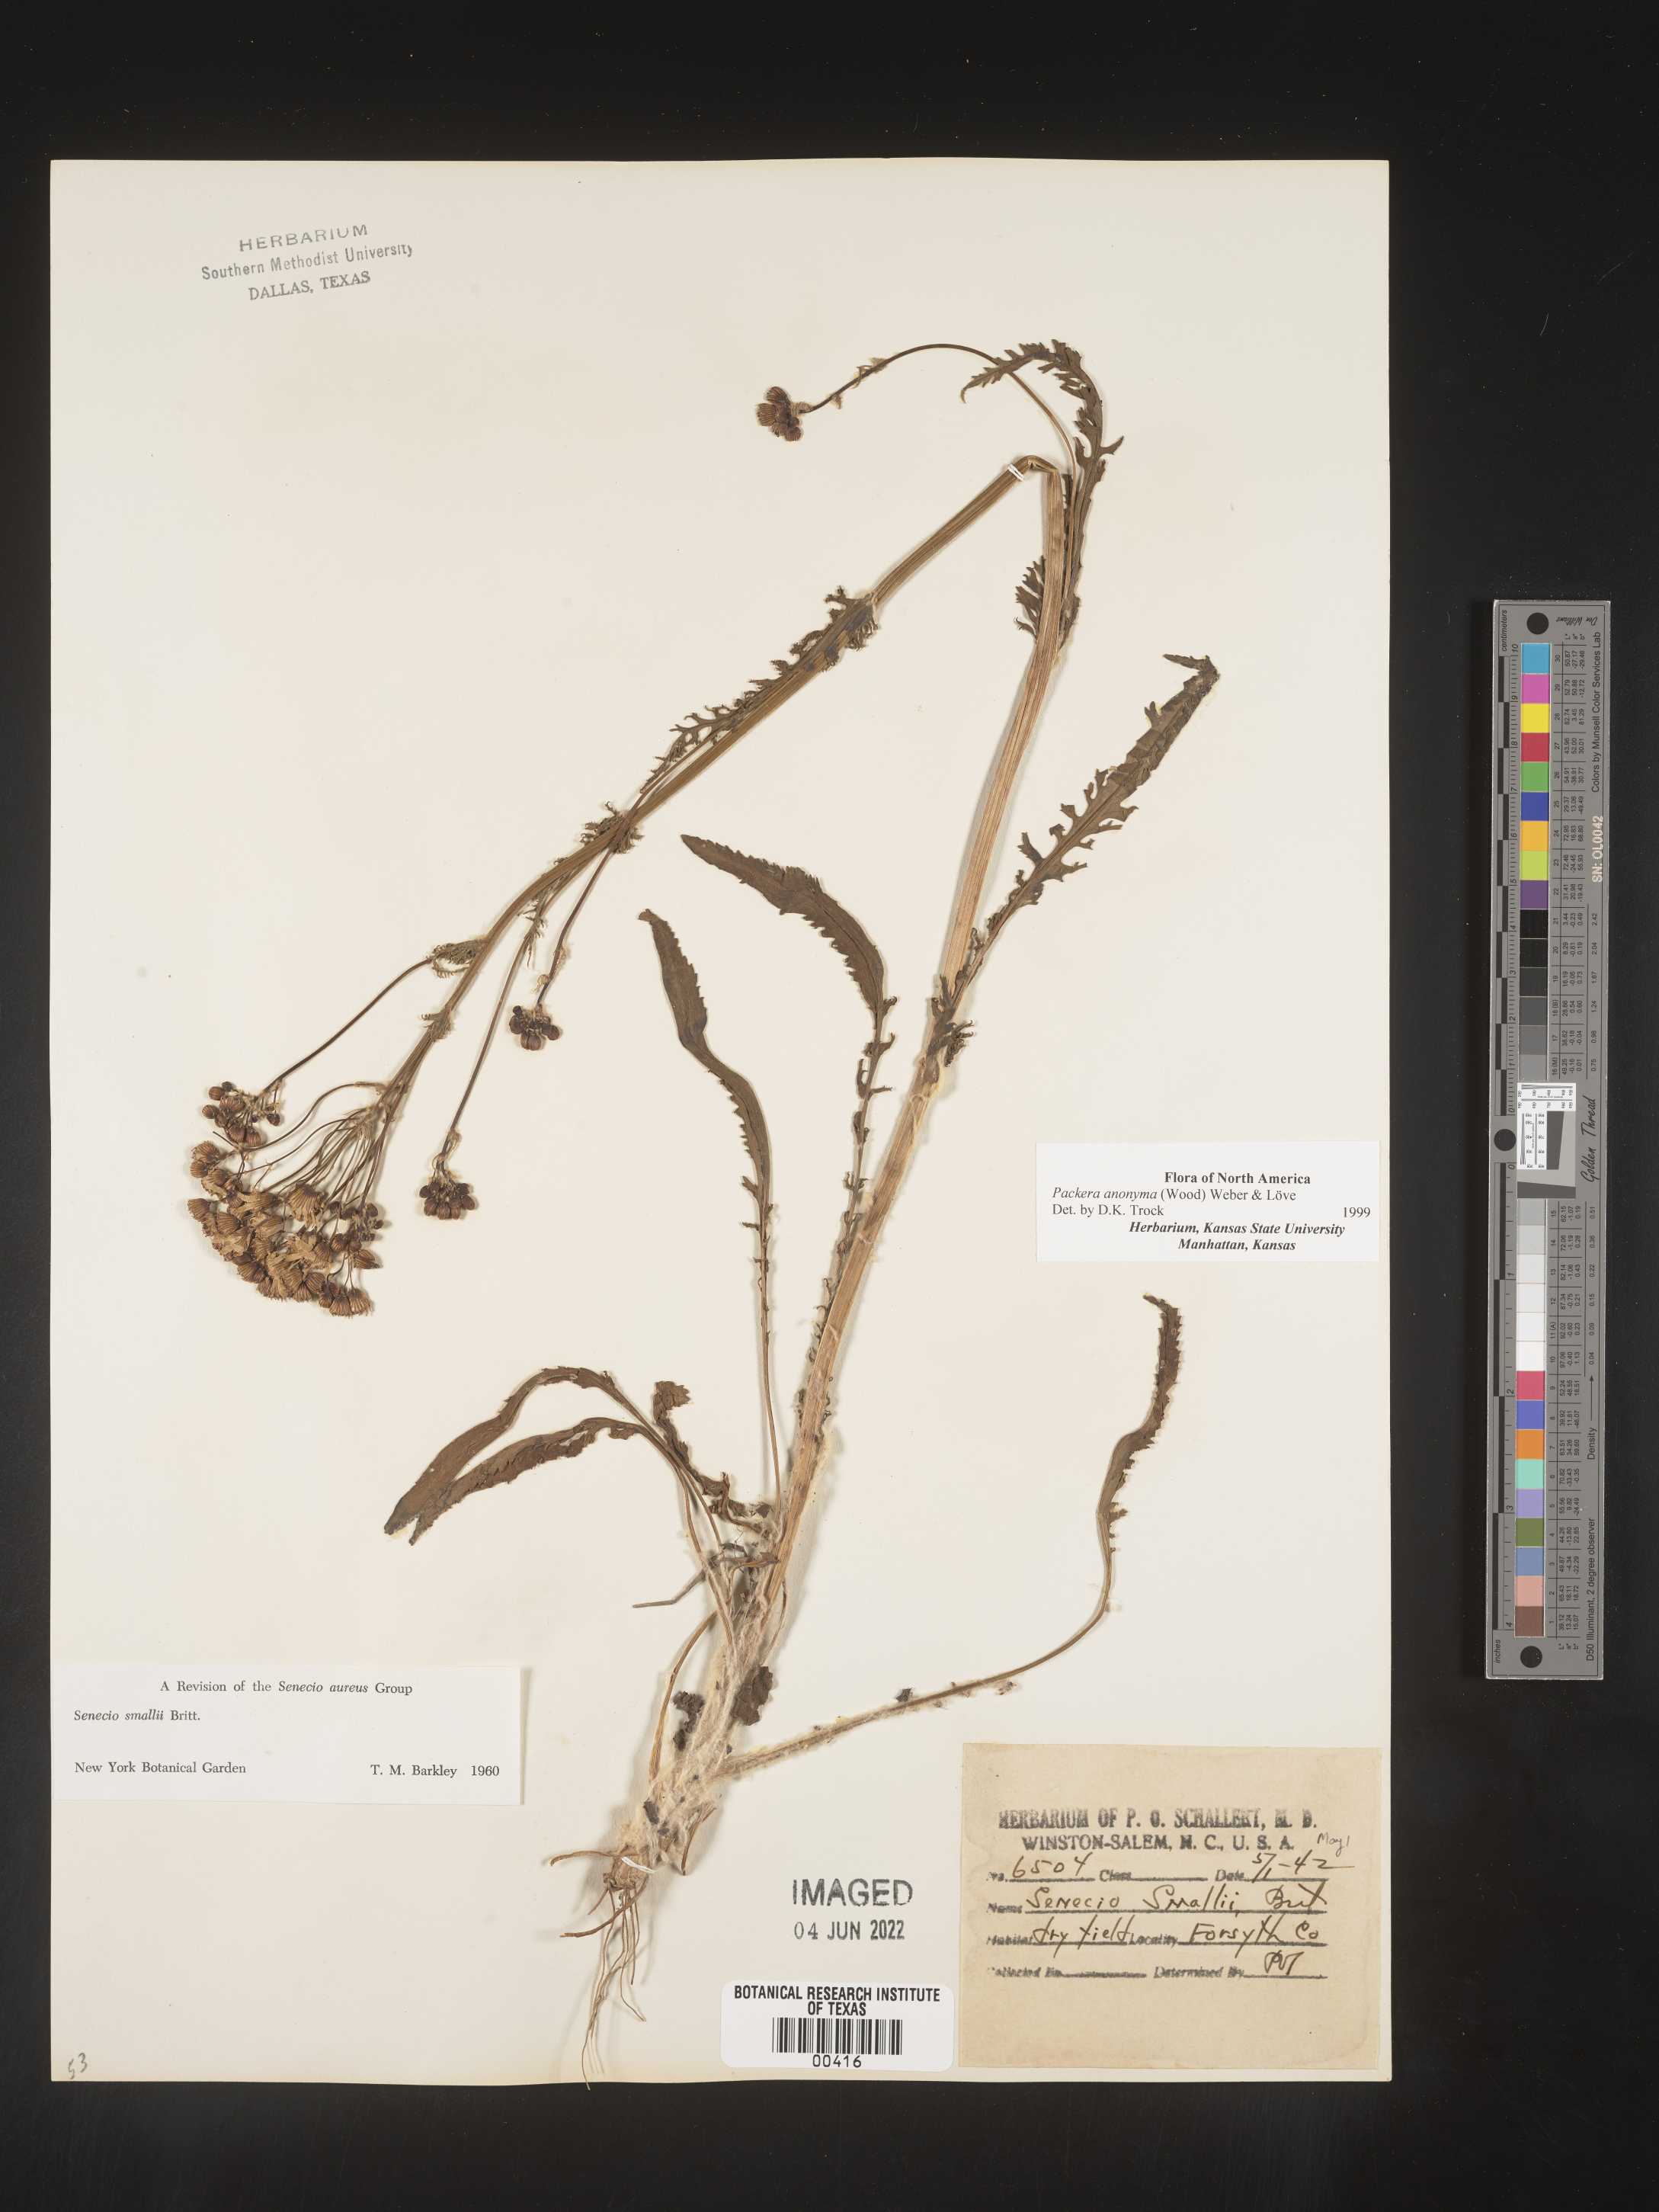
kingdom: Plantae
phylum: Tracheophyta
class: Magnoliopsida
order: Asterales
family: Asteraceae
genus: Packera
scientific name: Packera anonyma
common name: Small ragwort
